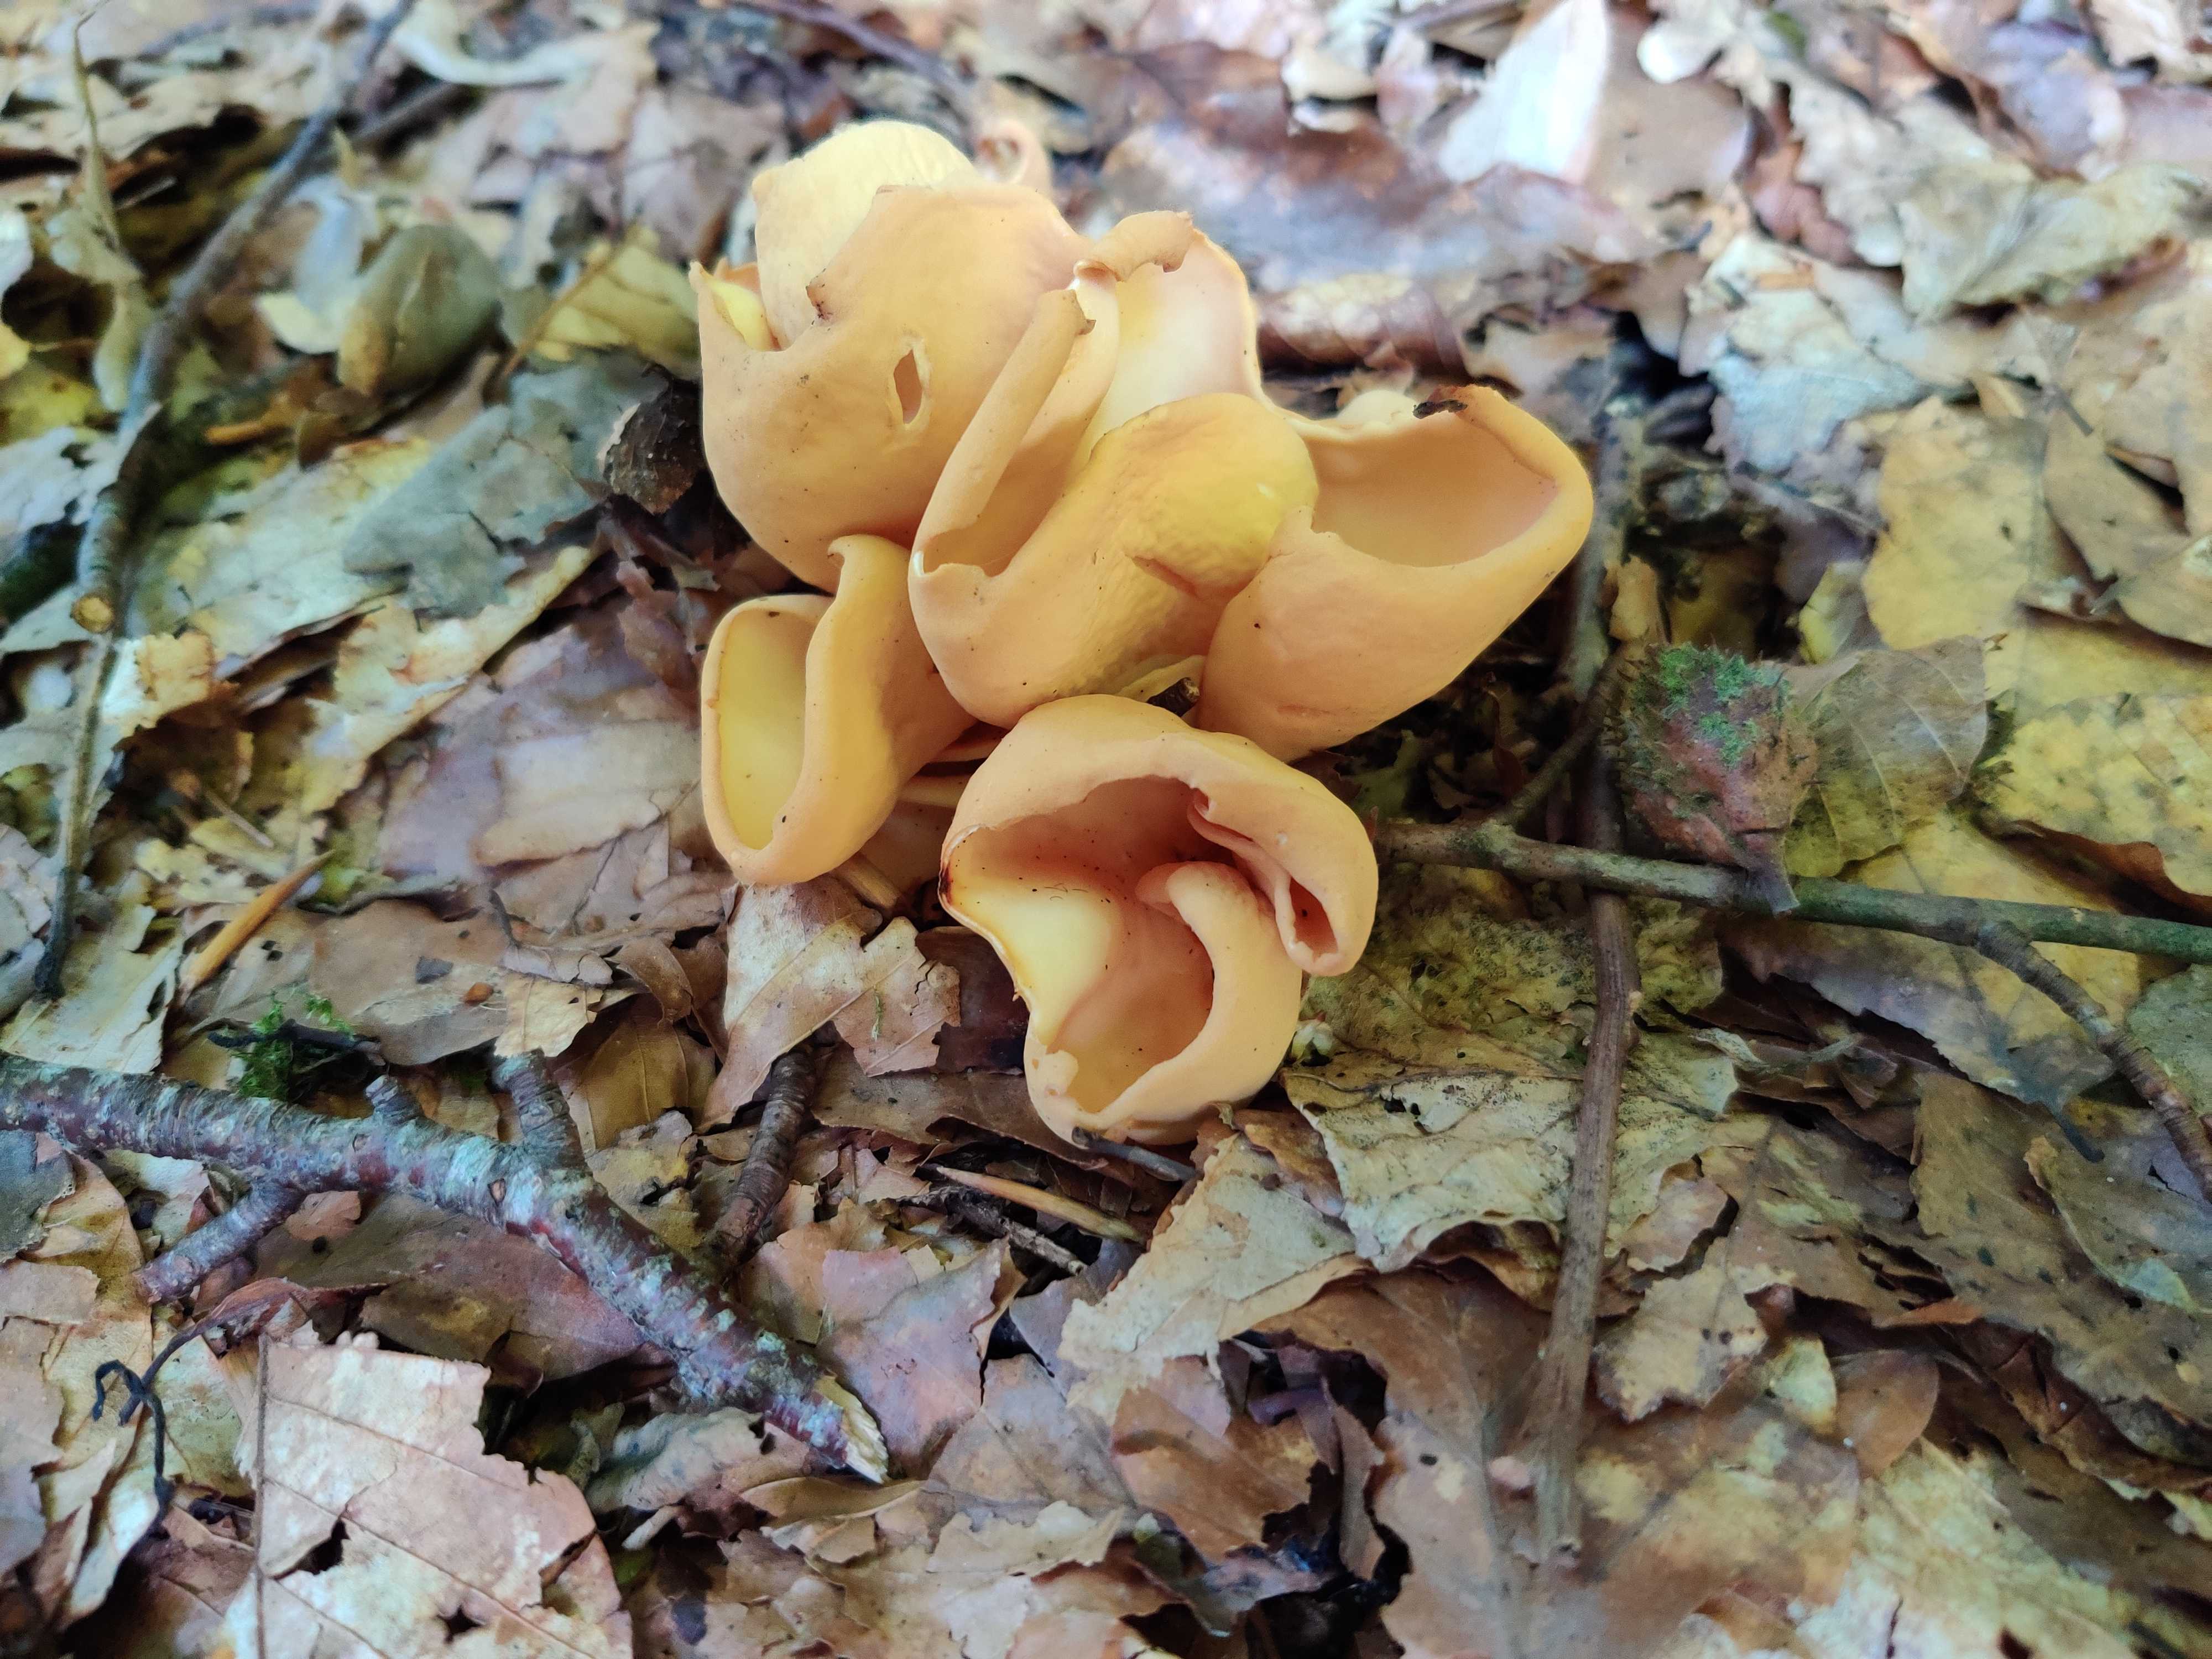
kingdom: Fungi
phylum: Ascomycota
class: Pezizomycetes
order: Pezizales
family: Otideaceae
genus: Otidea
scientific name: Otidea onotica
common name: æsel-ørebæger
